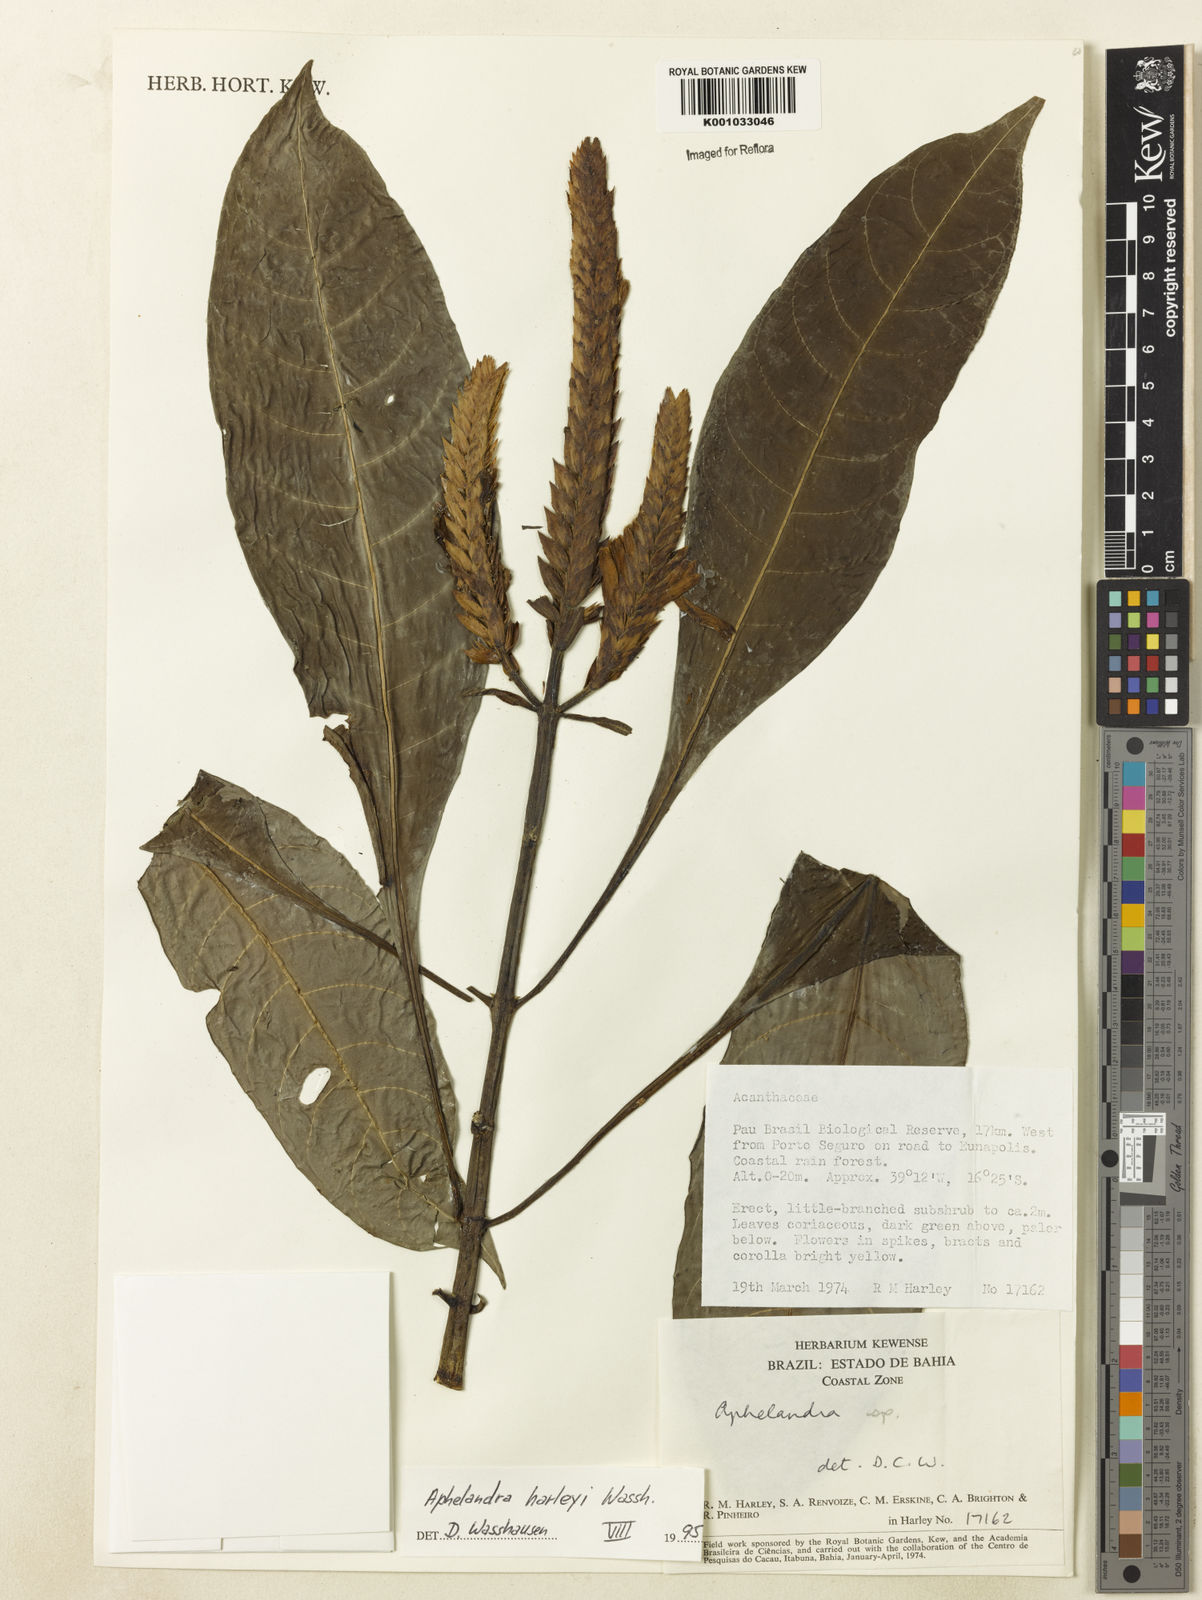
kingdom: Plantae
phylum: Tracheophyta
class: Magnoliopsida
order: Lamiales
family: Acanthaceae
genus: Aphelandra
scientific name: Aphelandra harleyi
